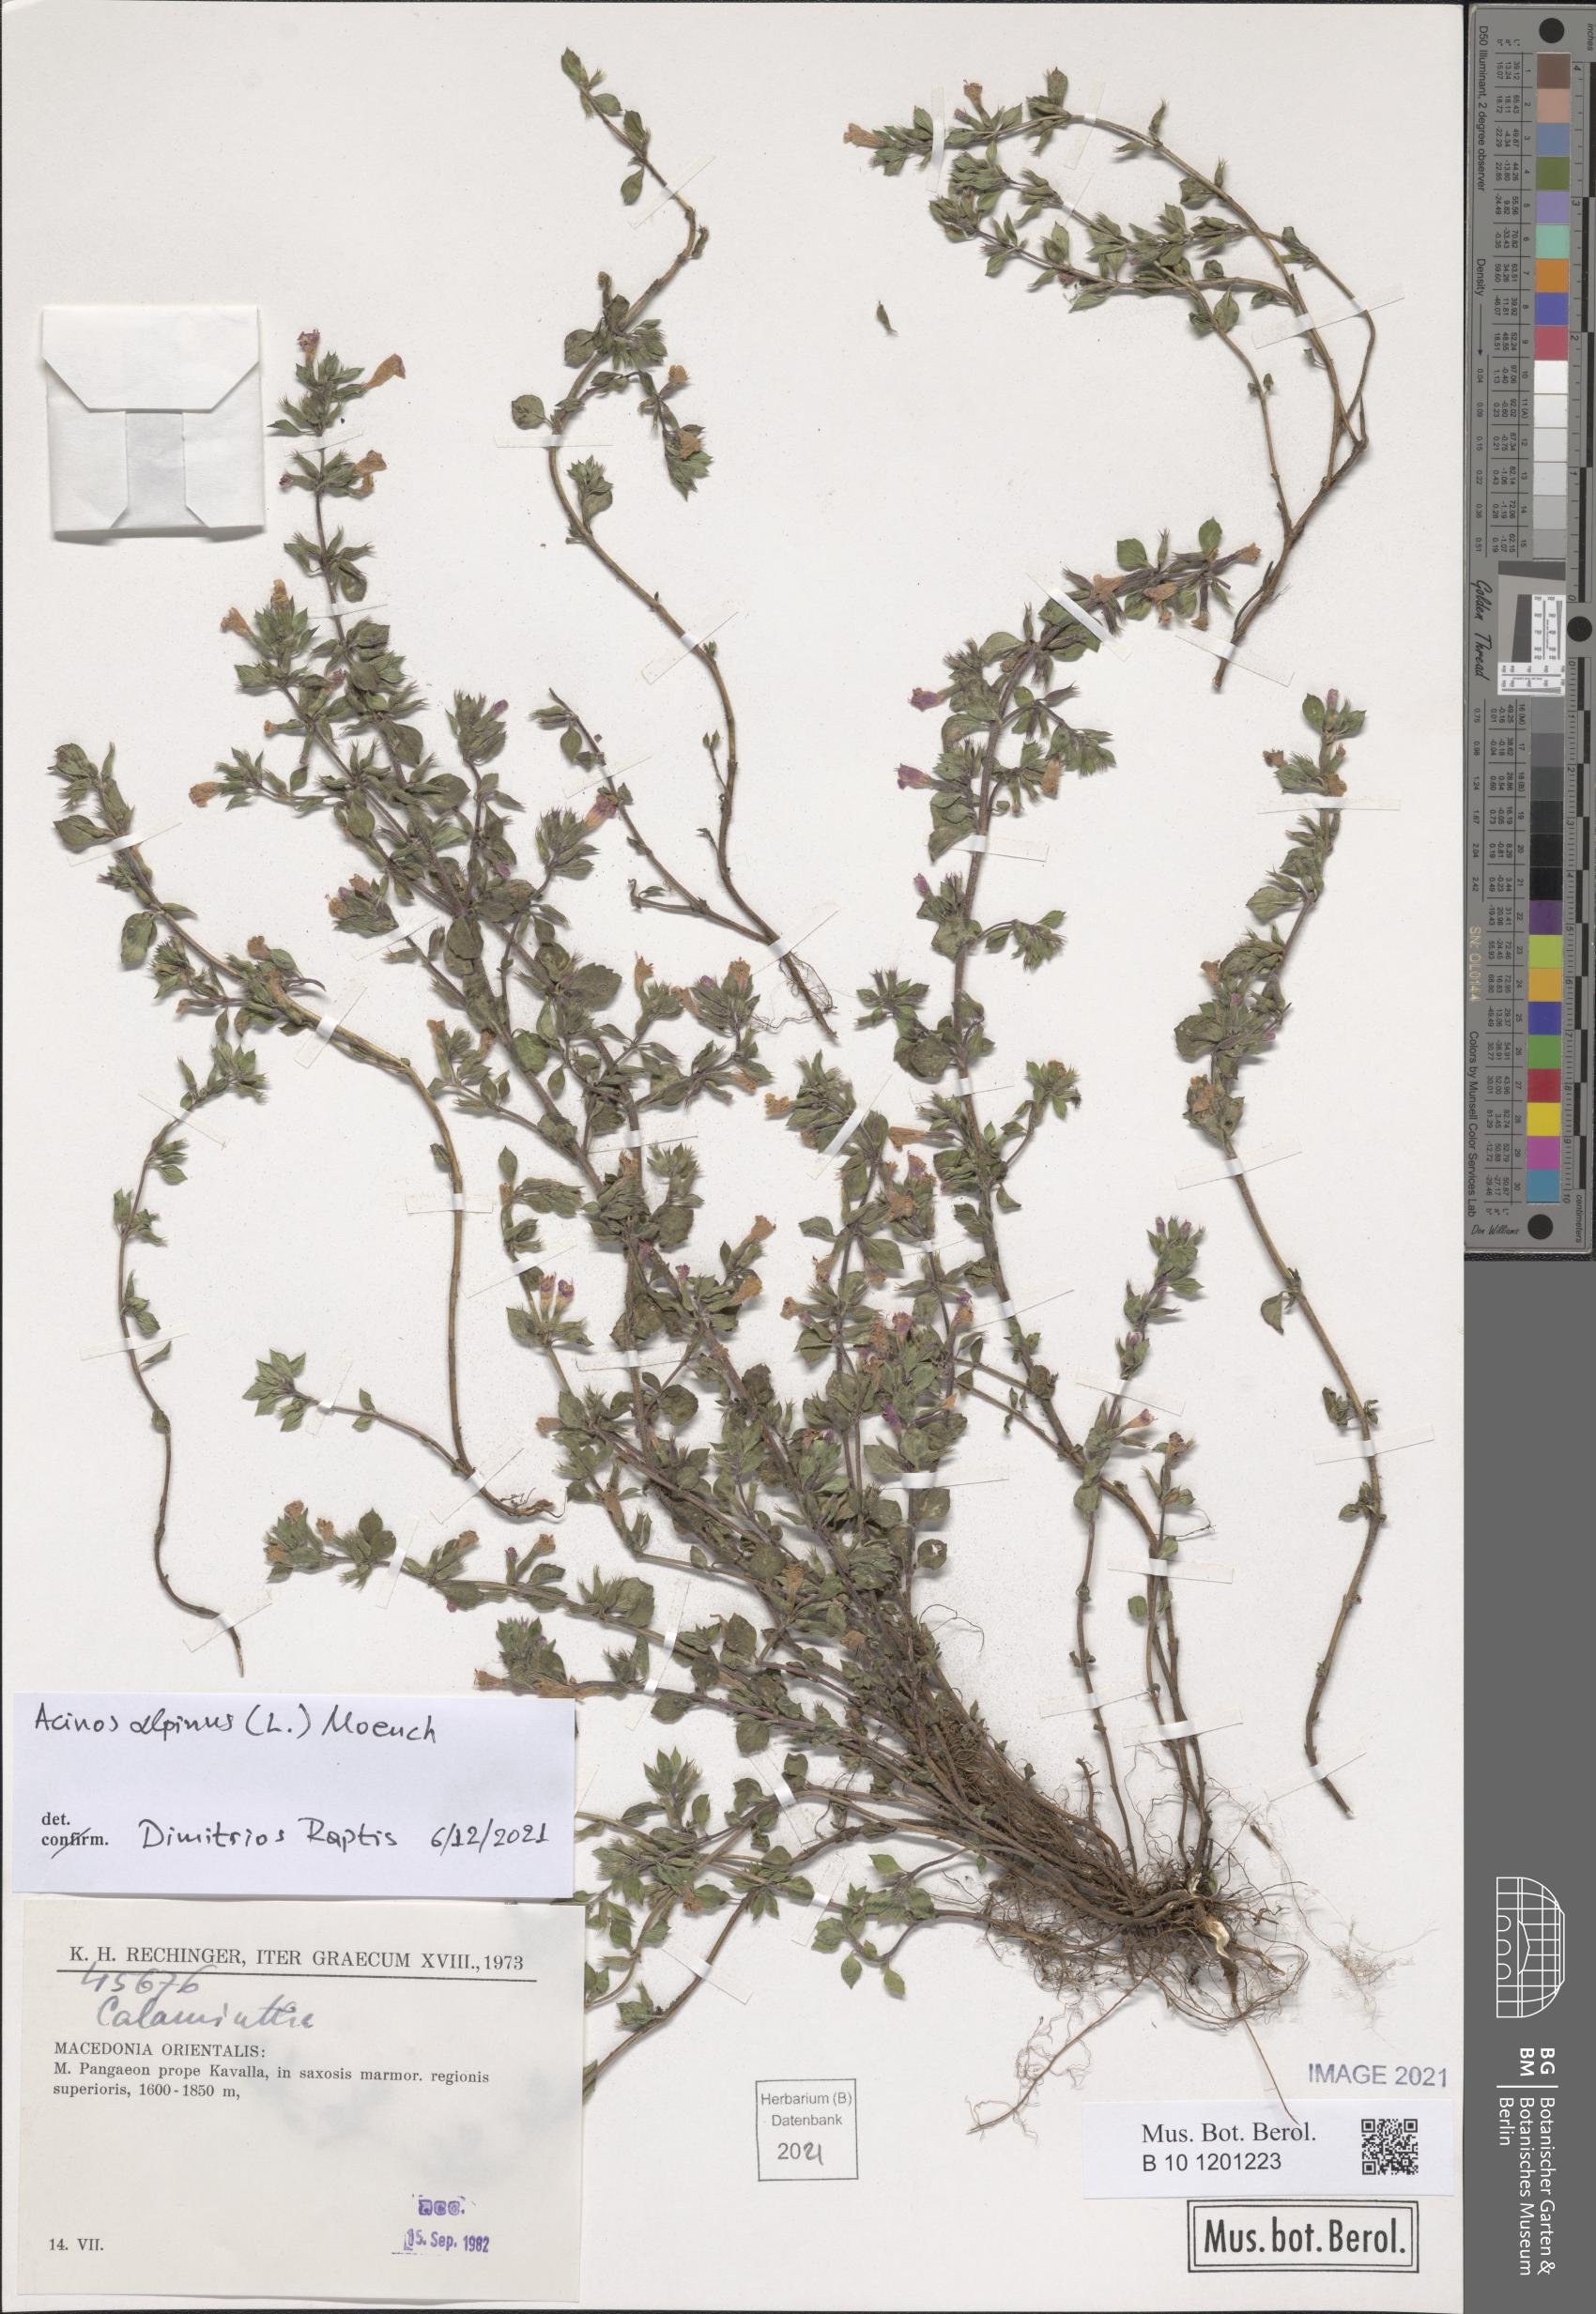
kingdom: Plantae
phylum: Tracheophyta
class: Magnoliopsida
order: Lamiales
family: Lamiaceae
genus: Clinopodium
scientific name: Clinopodium alpinum
